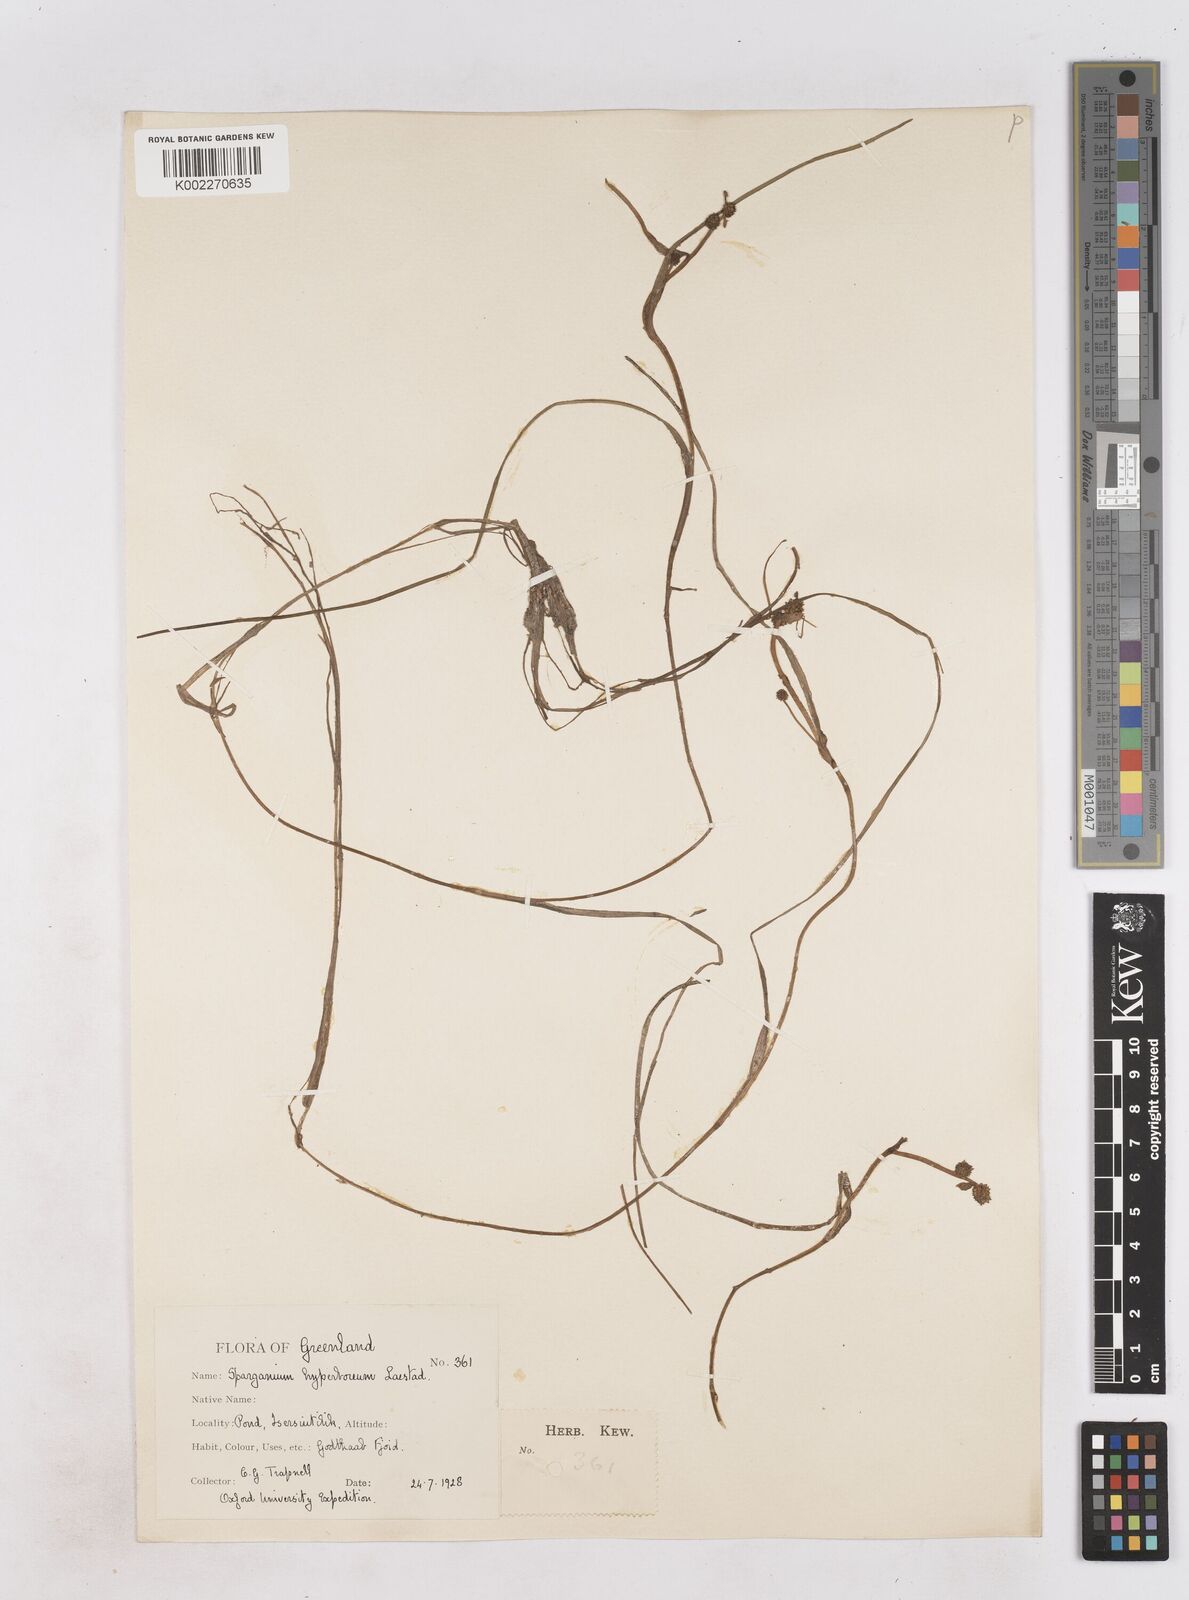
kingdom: Plantae
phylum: Tracheophyta
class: Liliopsida
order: Poales
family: Typhaceae
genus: Sparganium
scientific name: Sparganium hyperboreum
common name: Arctic burreed
